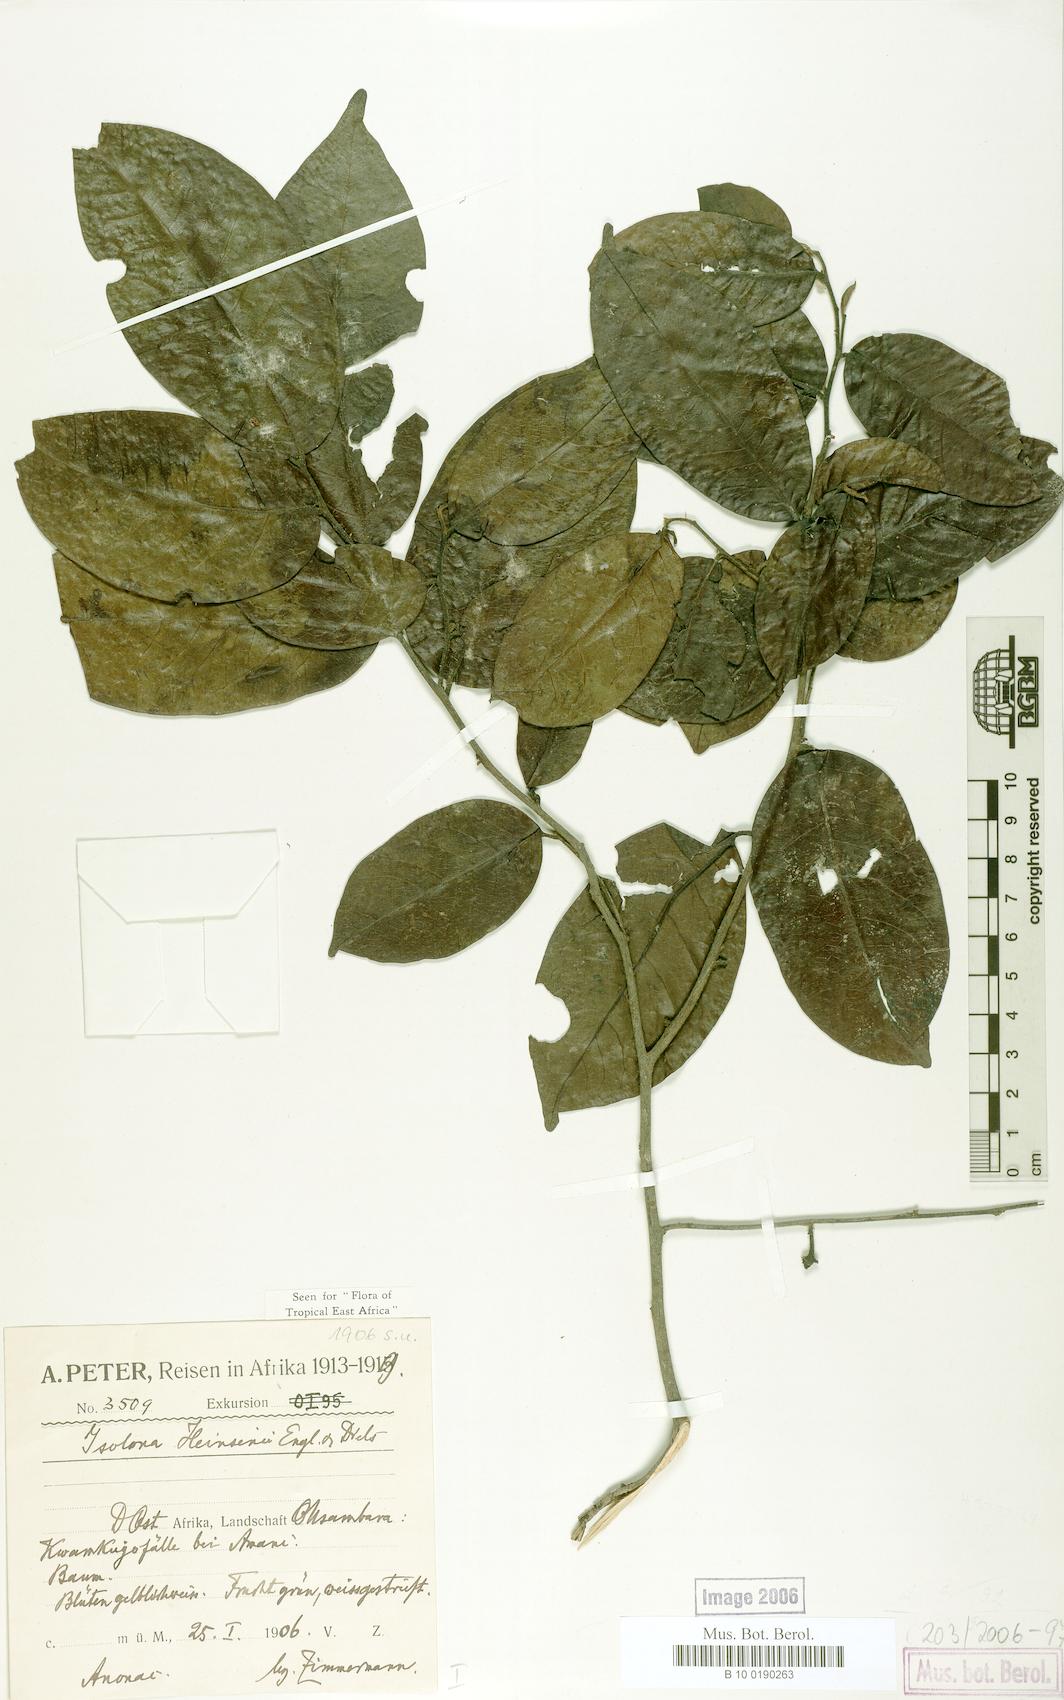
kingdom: Plantae
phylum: Tracheophyta
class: Magnoliopsida
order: Magnoliales
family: Annonaceae
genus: Isolona
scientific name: Isolona heinsenii
